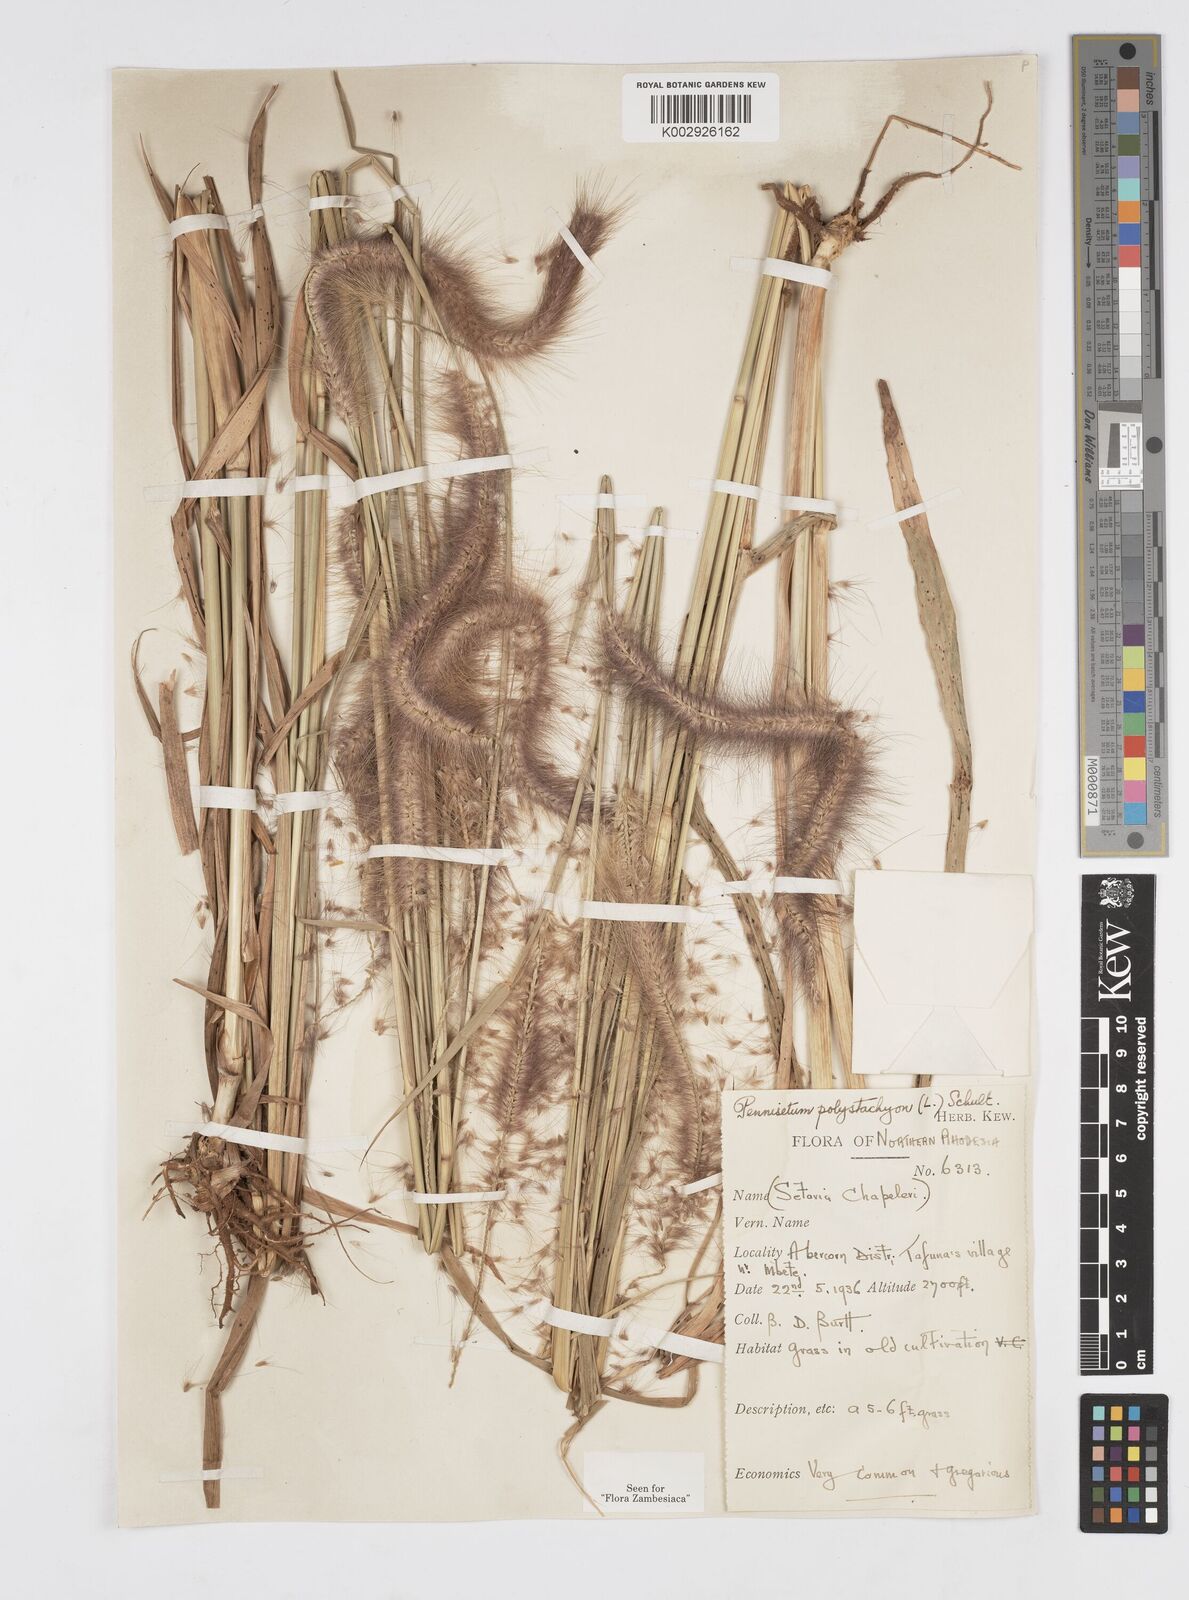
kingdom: Plantae
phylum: Tracheophyta
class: Liliopsida
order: Poales
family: Poaceae
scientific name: Poaceae
